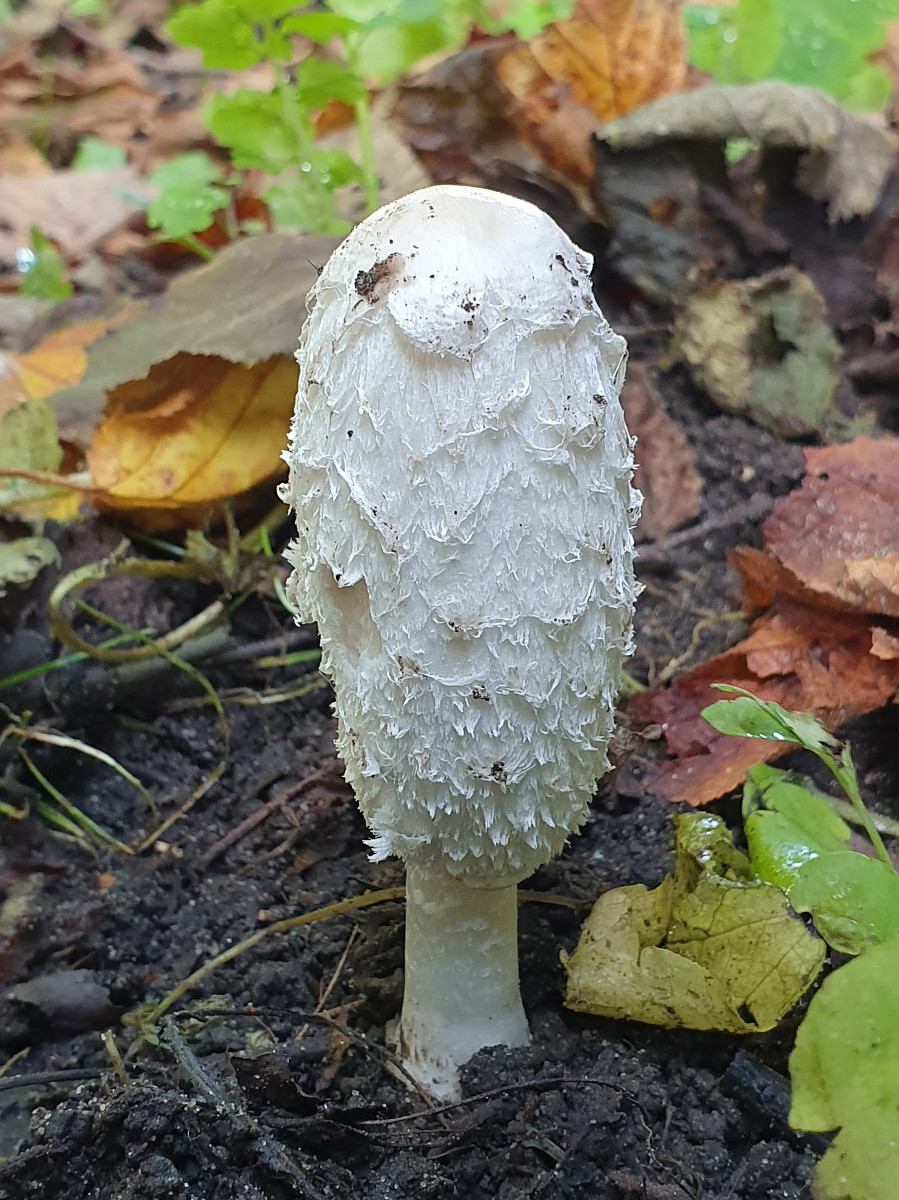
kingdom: Fungi
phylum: Basidiomycota
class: Agaricomycetes
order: Agaricales
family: Agaricaceae
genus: Coprinus
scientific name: Coprinus comatus
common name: stor parykhat
